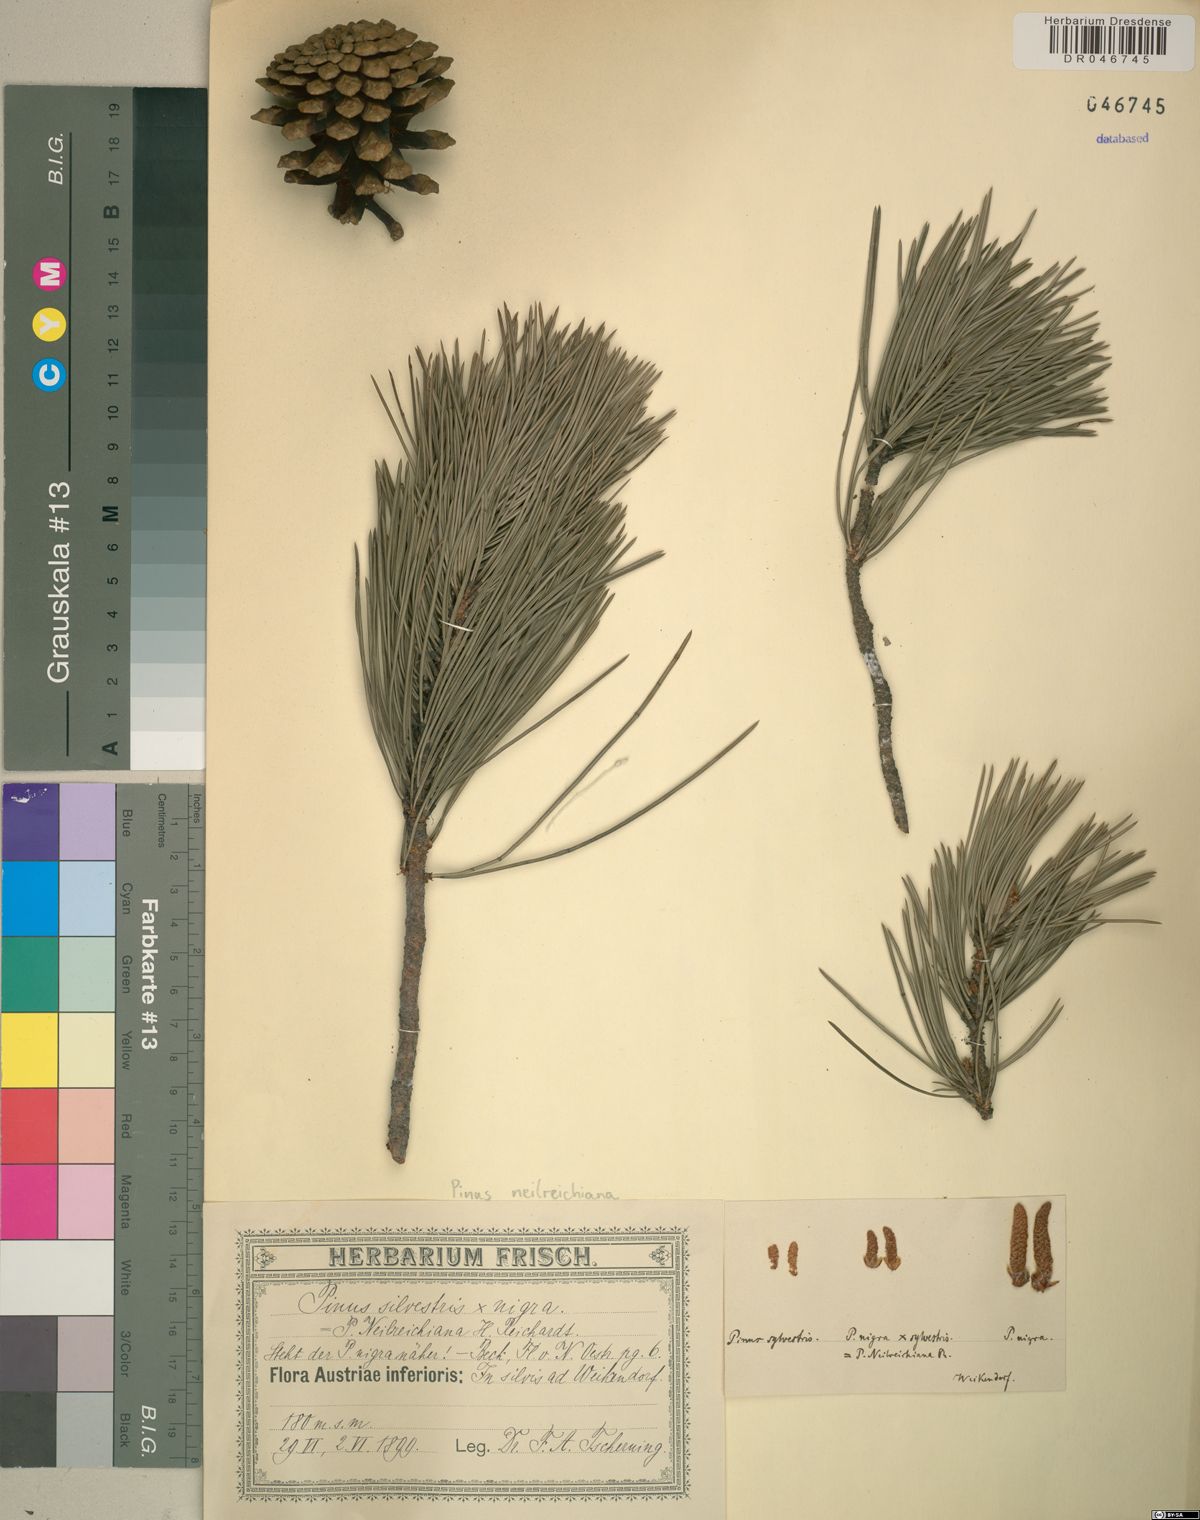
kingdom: Plantae
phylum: Tracheophyta
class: Pinopsida
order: Pinales
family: Pinaceae
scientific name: Pinaceae
